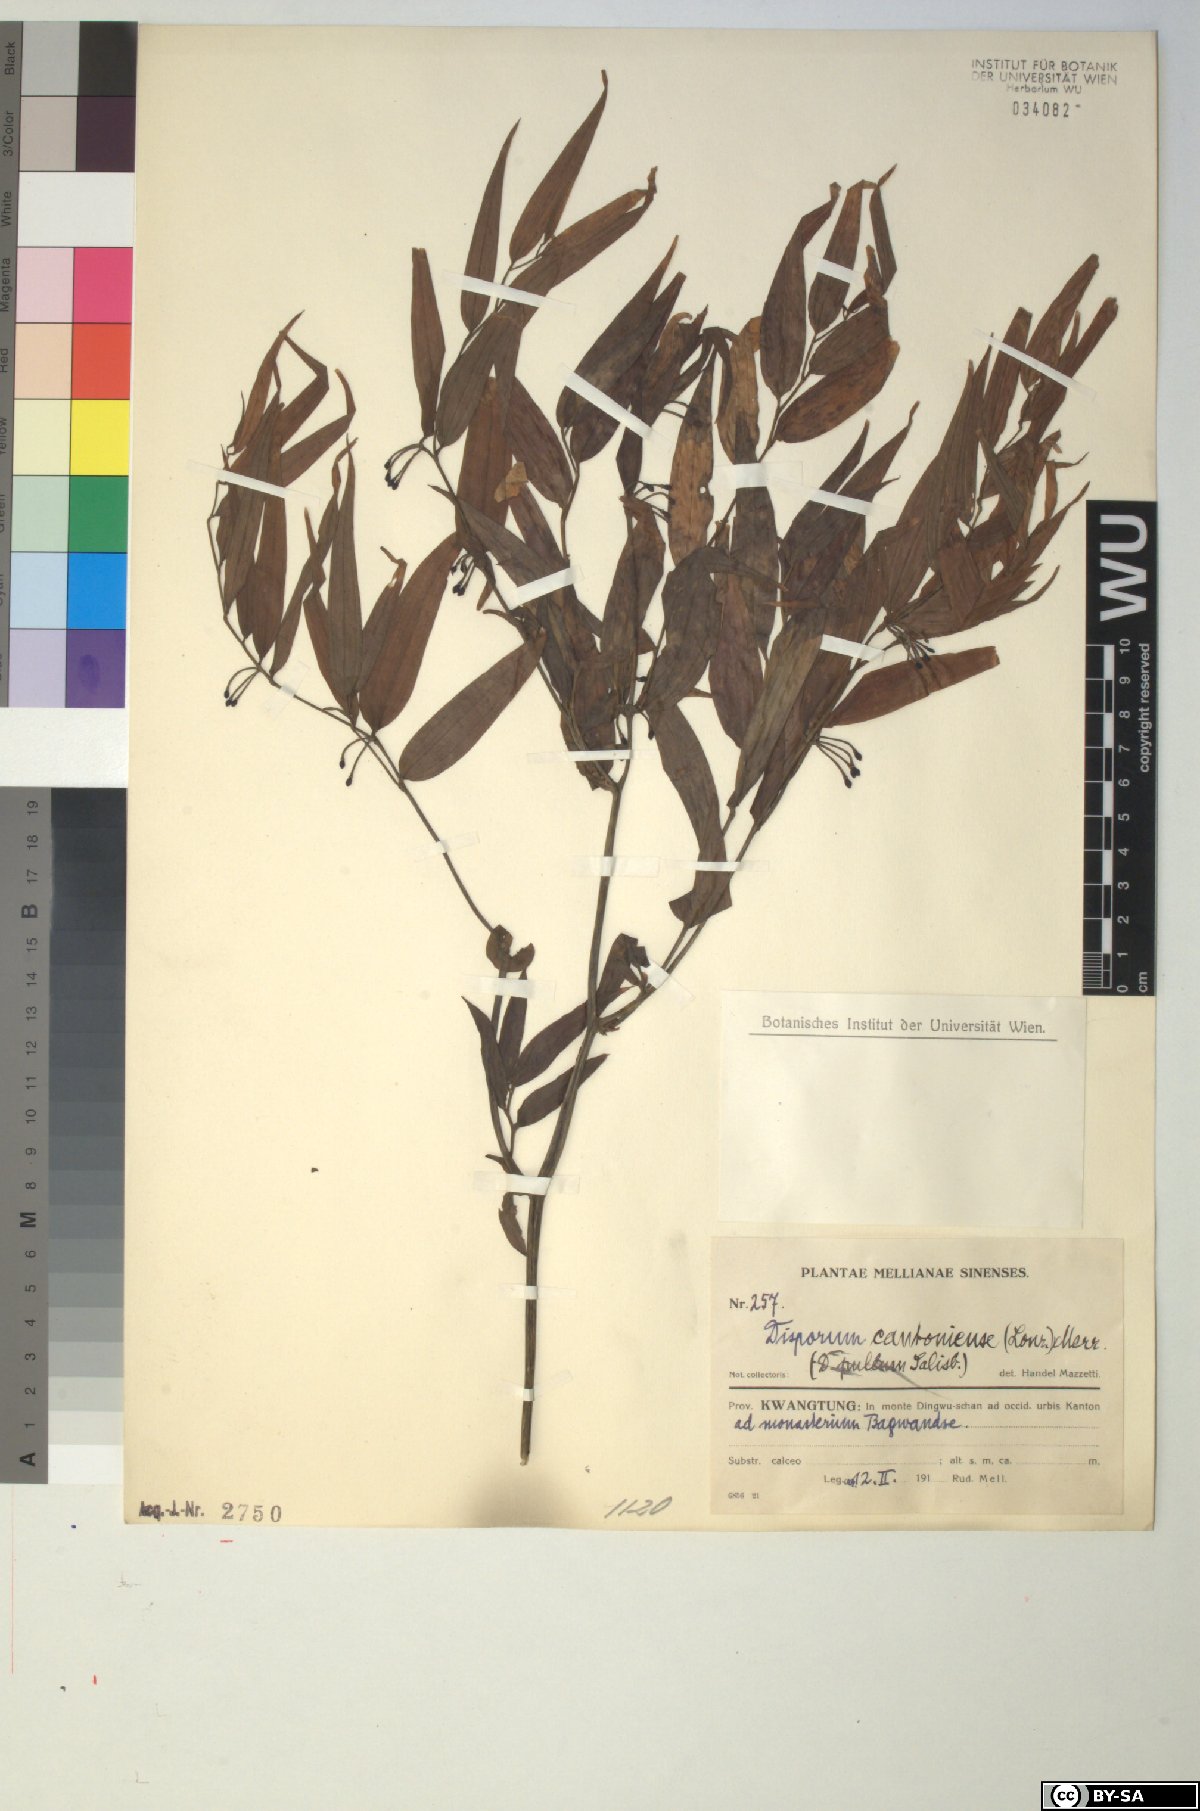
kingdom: Plantae
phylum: Tracheophyta
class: Liliopsida
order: Liliales
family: Colchicaceae
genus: Disporum
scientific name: Disporum cantoniense
